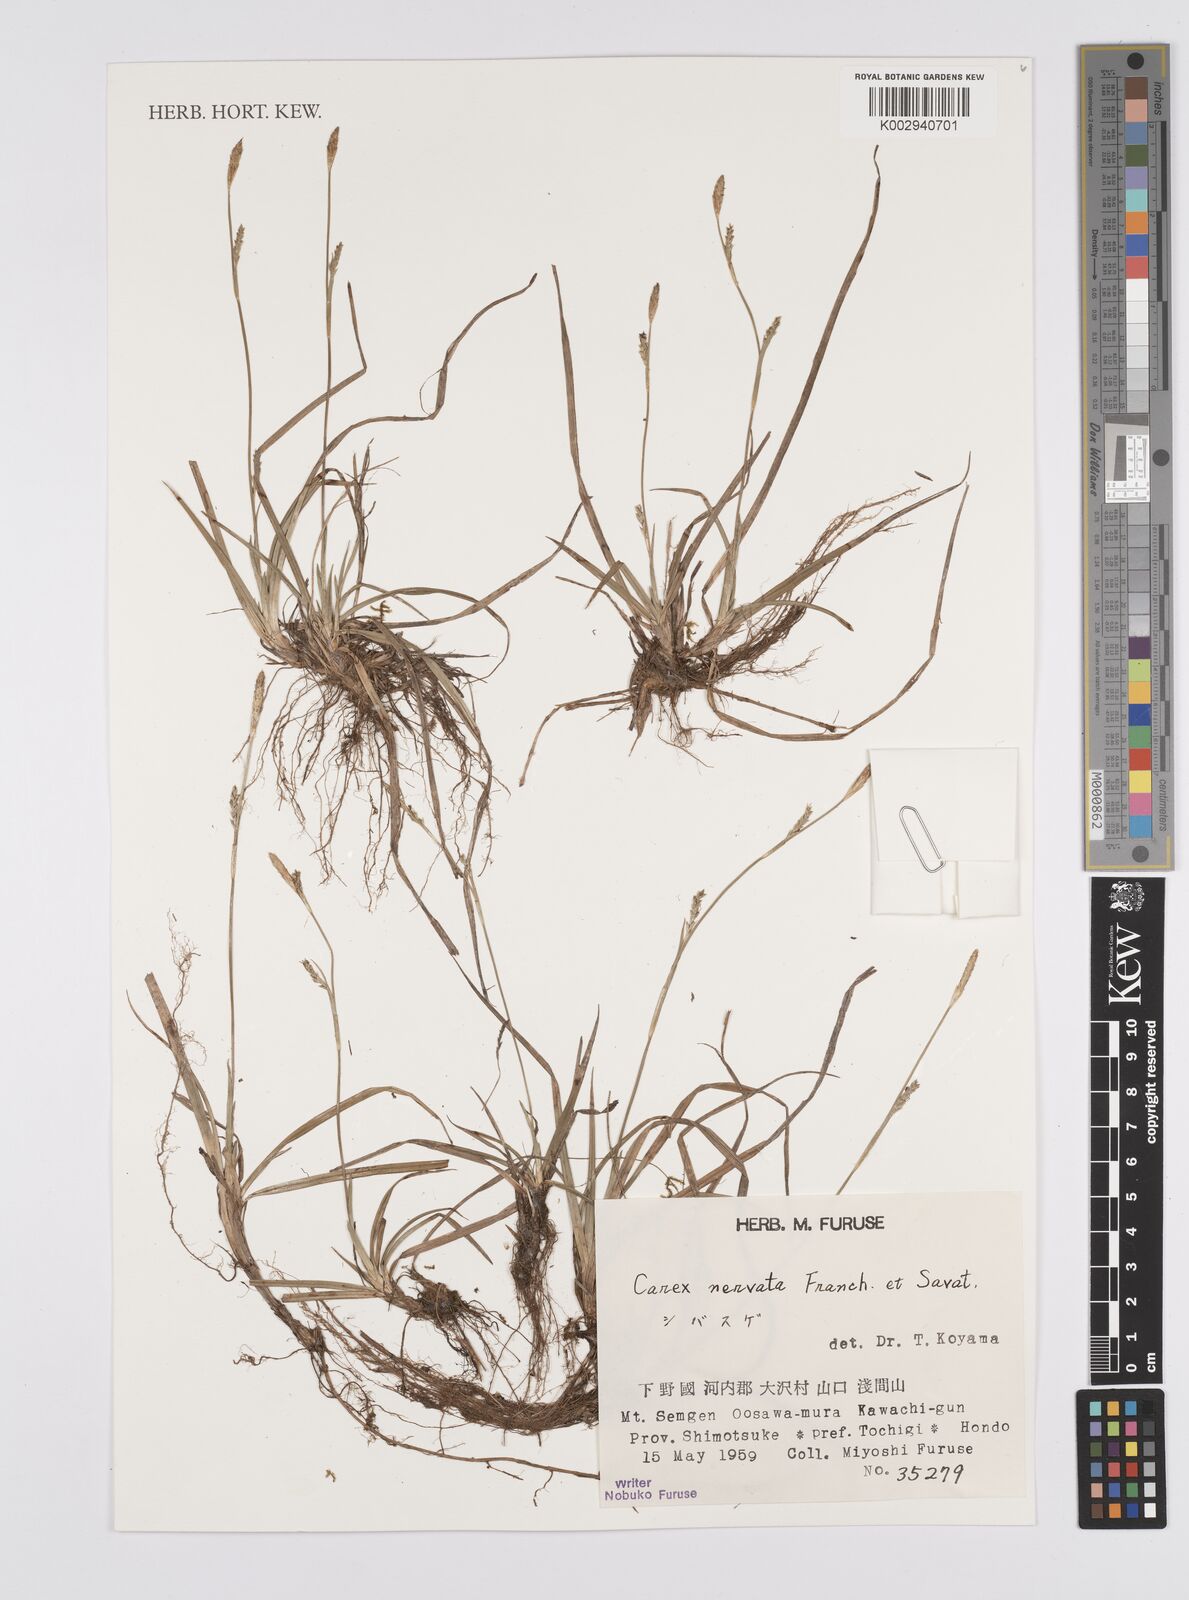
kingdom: Plantae
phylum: Tracheophyta
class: Liliopsida
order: Poales
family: Cyperaceae
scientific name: Cyperaceae
